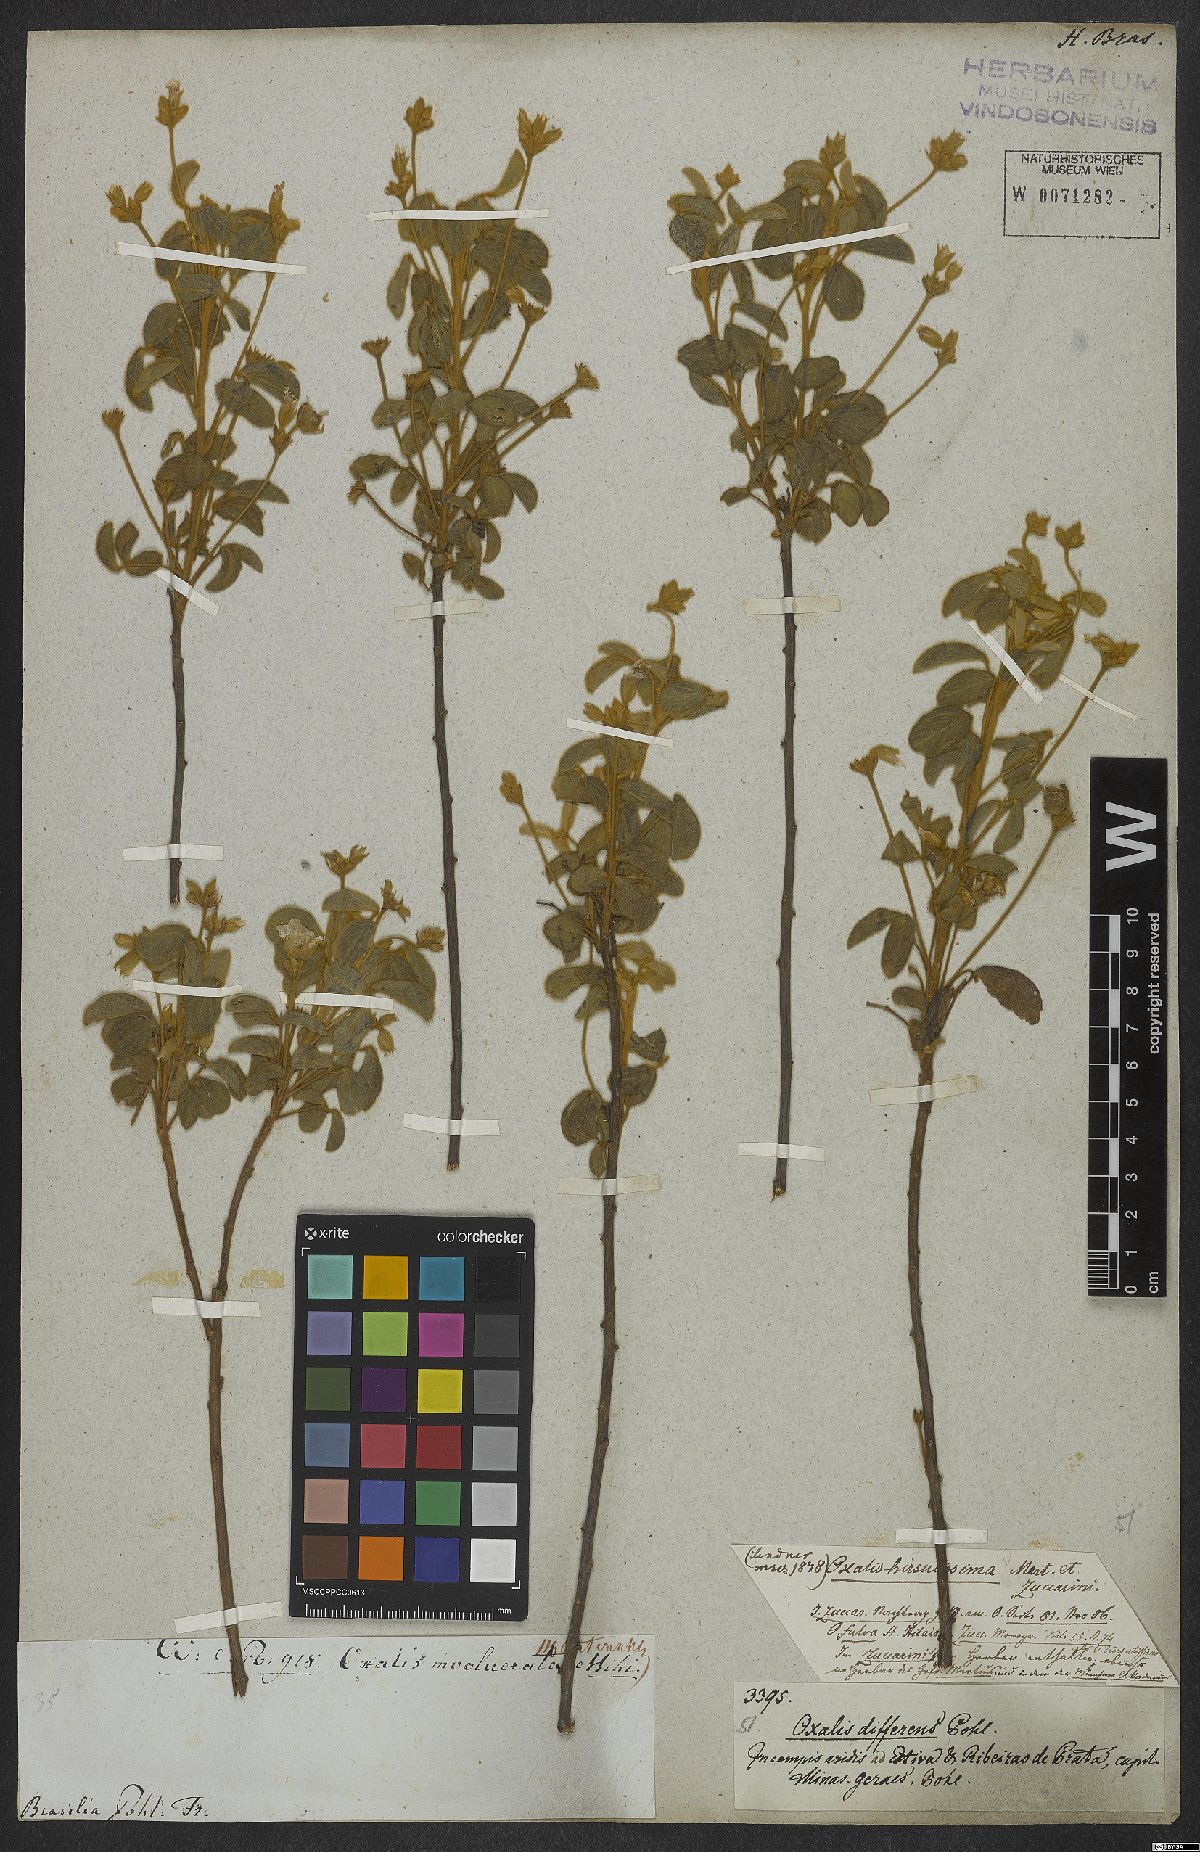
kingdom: Plantae
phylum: Tracheophyta
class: Magnoliopsida
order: Oxalidales
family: Oxalidaceae
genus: Oxalis
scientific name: Oxalis hirsutissima
